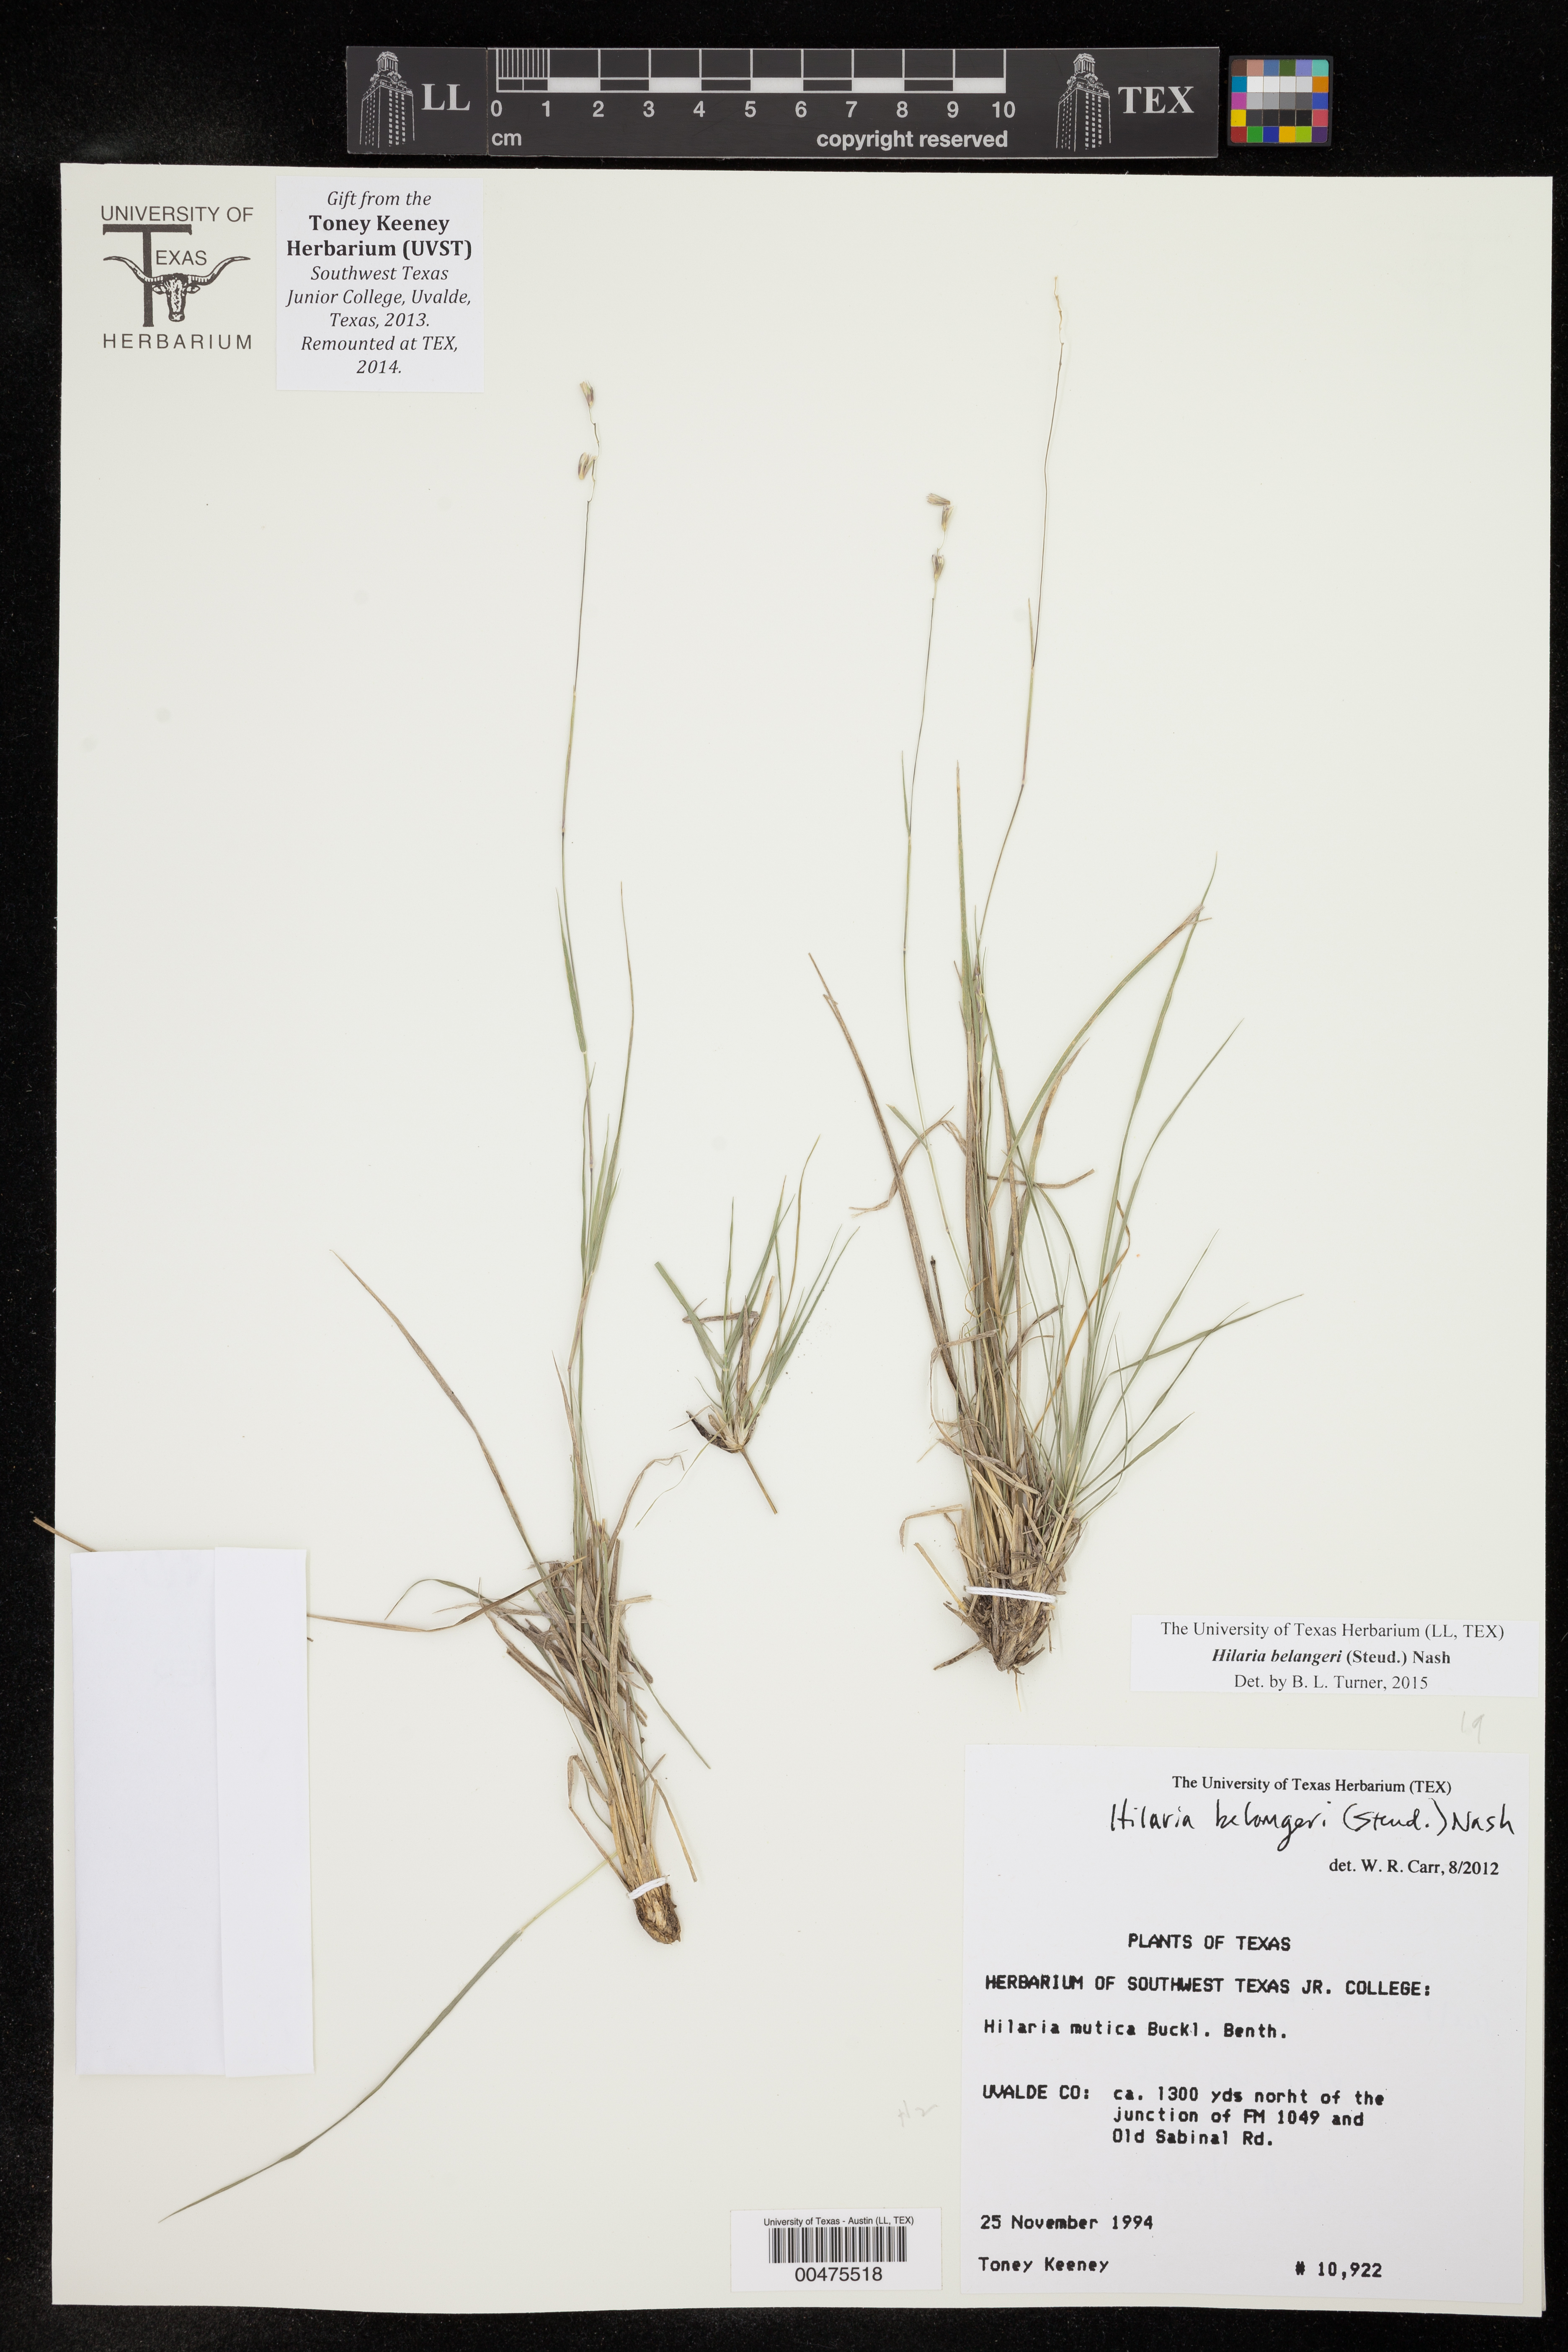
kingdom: Plantae
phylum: Tracheophyta
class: Liliopsida
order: Poales
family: Poaceae
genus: Hilaria
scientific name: Hilaria belangeri
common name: Curly-mesquite
